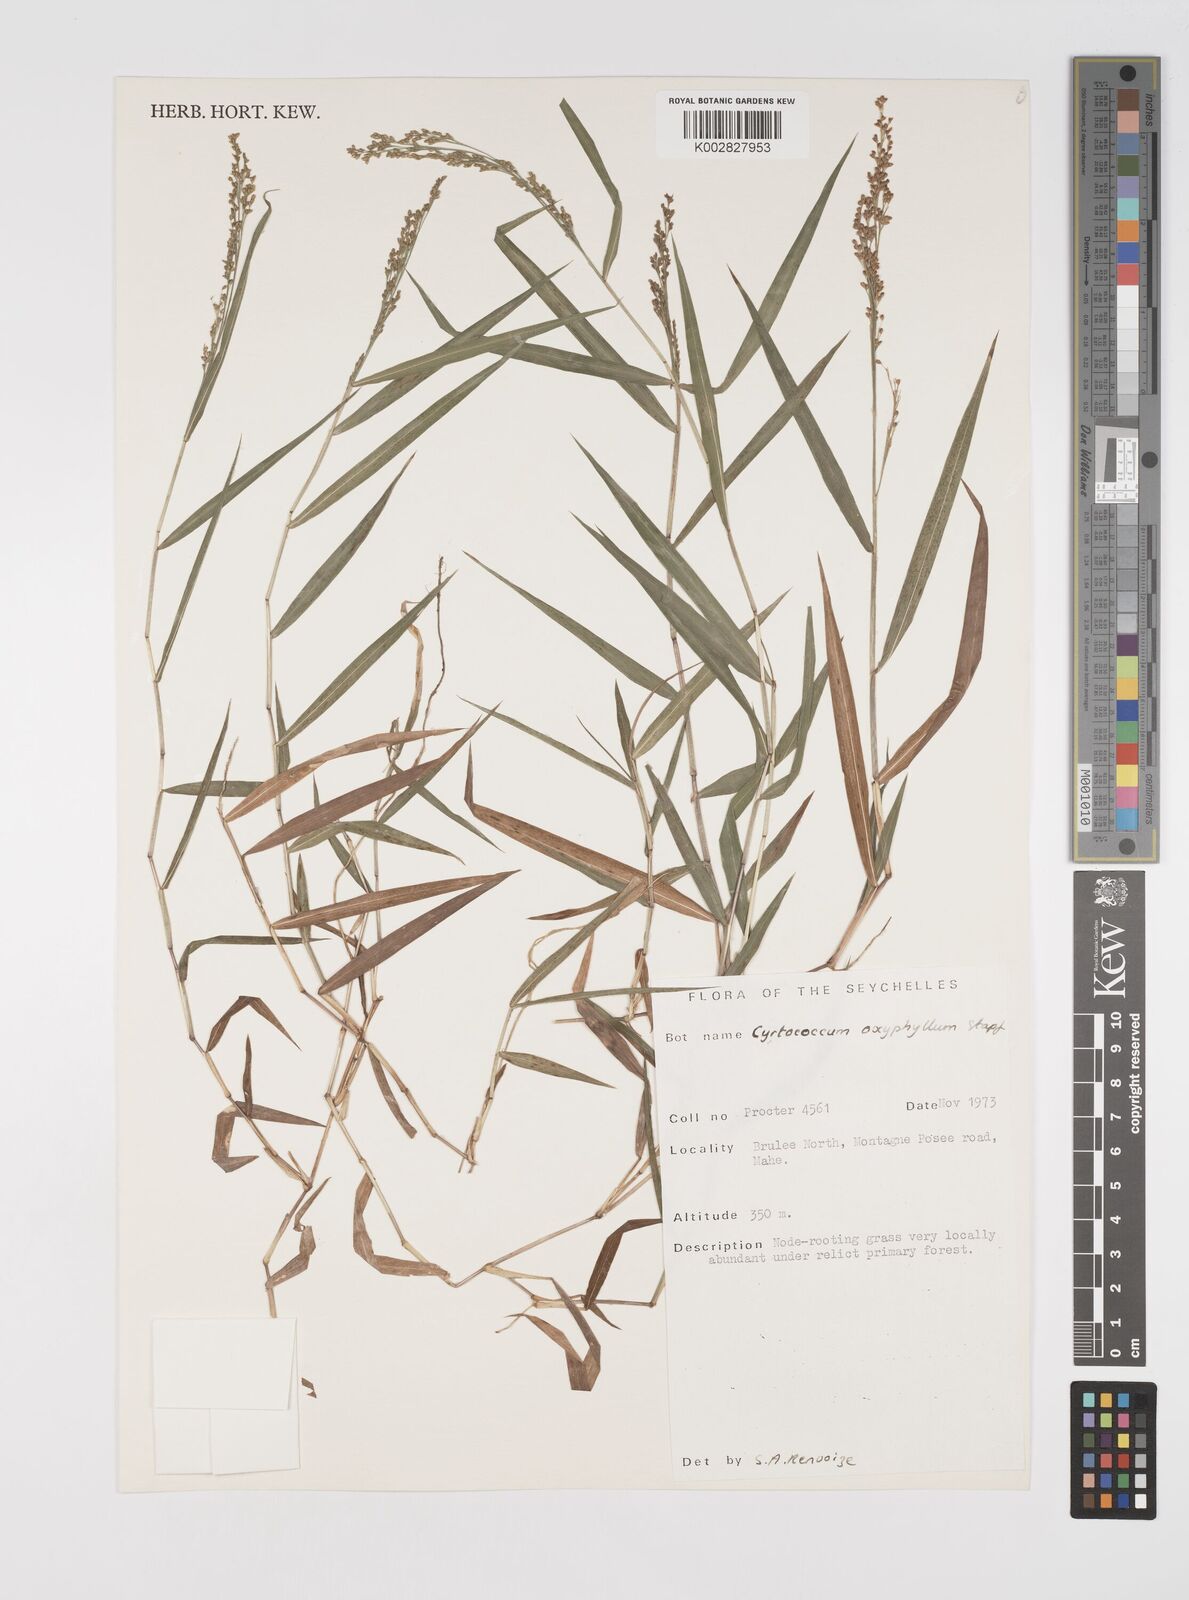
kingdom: Plantae
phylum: Tracheophyta
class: Liliopsida
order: Poales
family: Poaceae
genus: Cyrtococcum
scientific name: Cyrtococcum oxyphyllum
